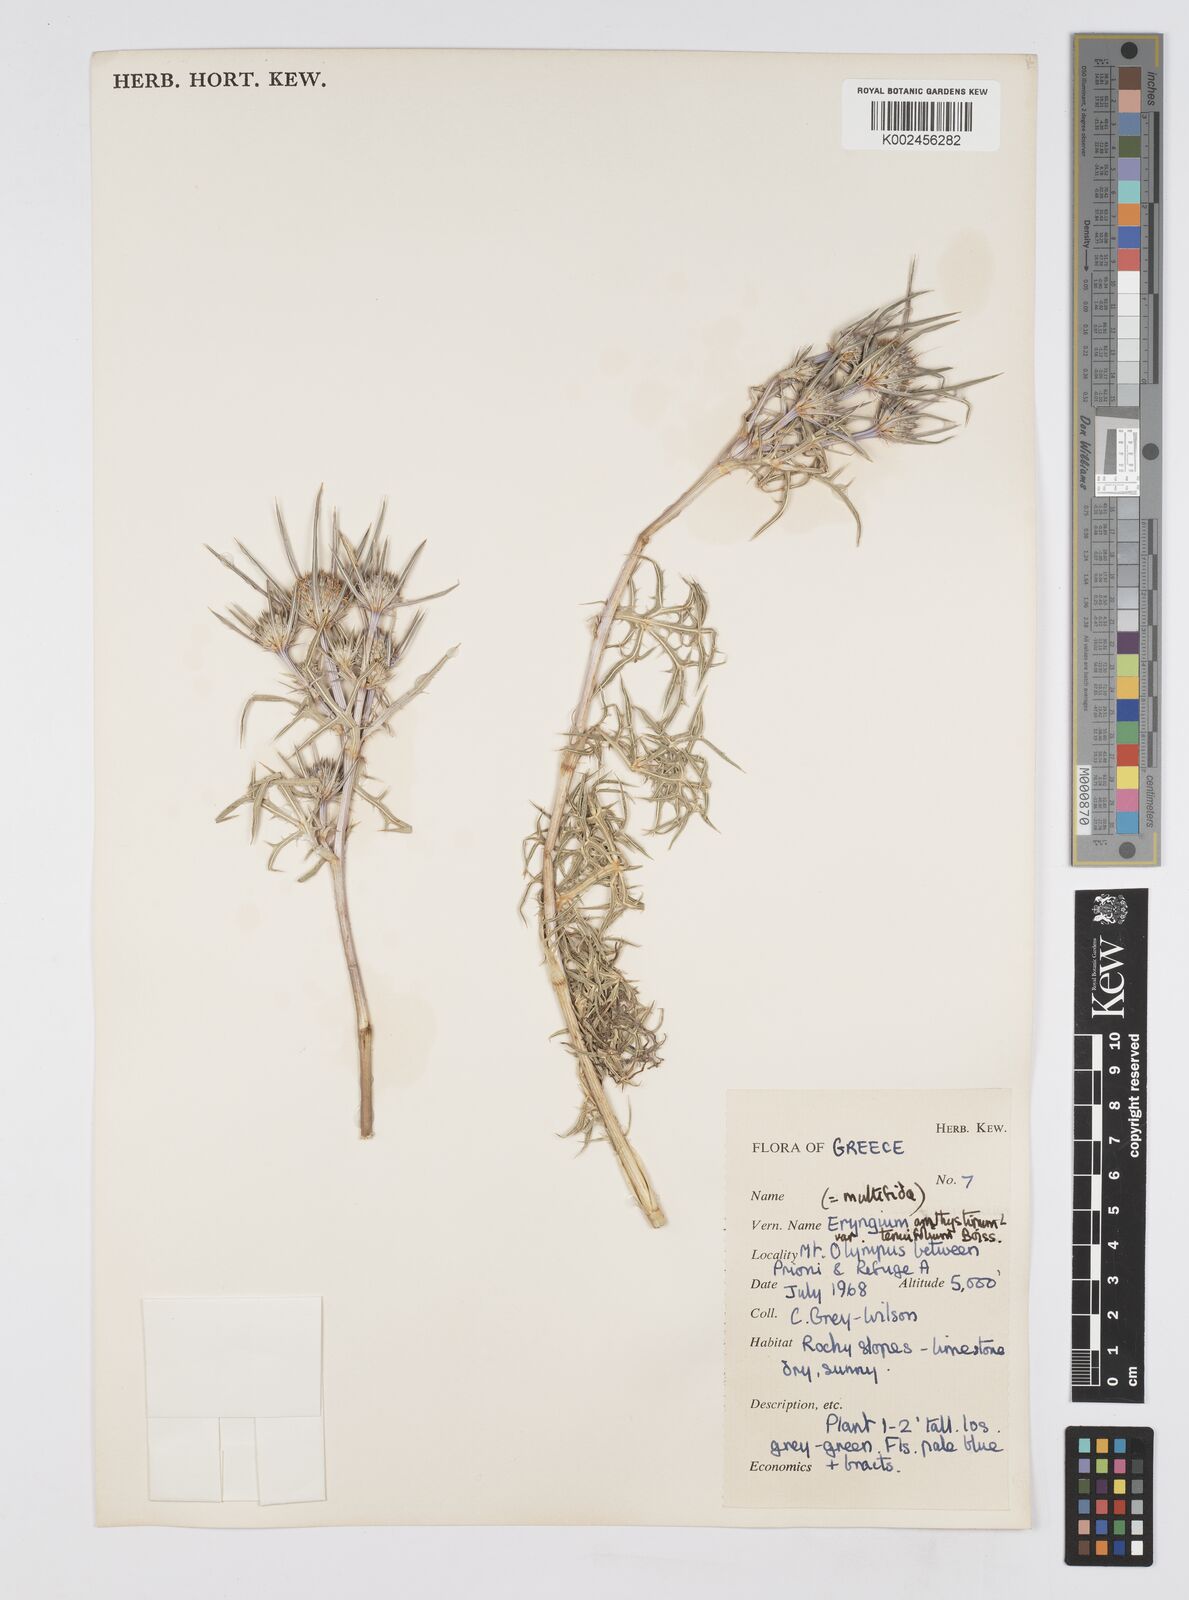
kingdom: Plantae
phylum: Tracheophyta
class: Magnoliopsida
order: Apiales
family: Apiaceae
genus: Eryngium
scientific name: Eryngium amethystinum
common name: Amethyst eryngo
